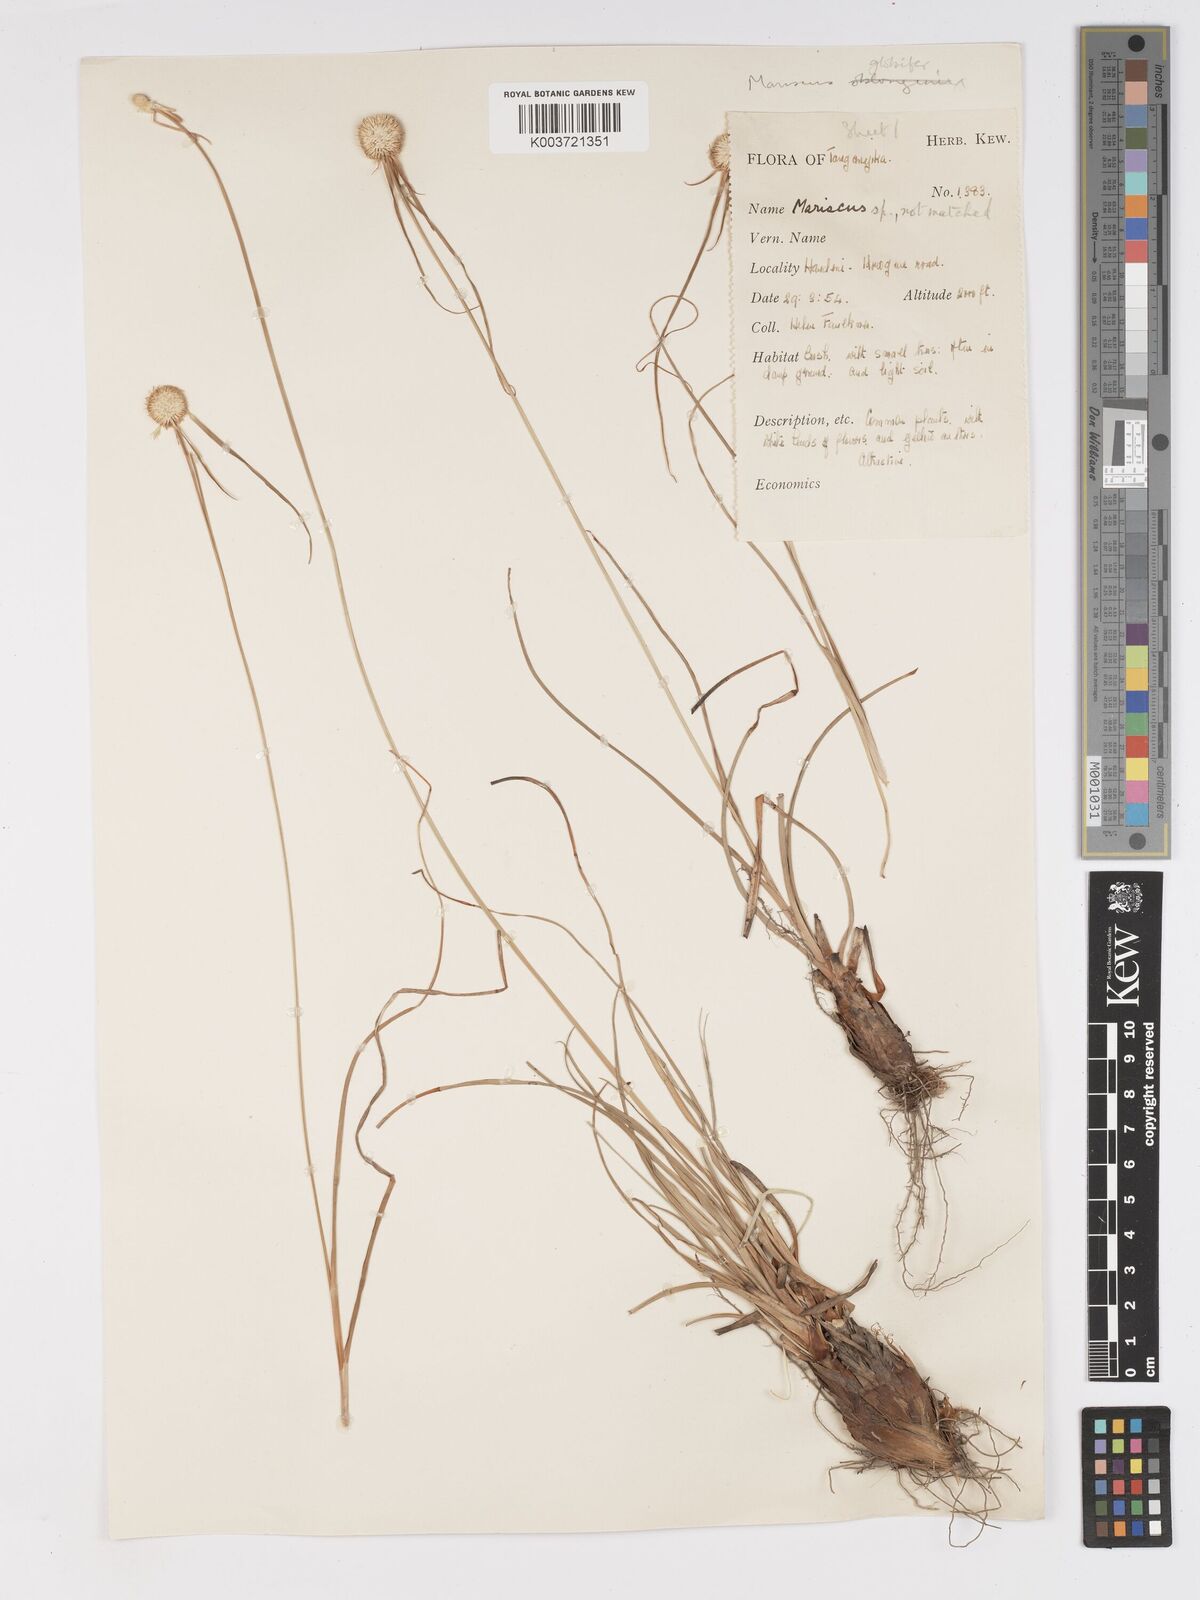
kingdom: Plantae
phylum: Tracheophyta
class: Liliopsida
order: Poales
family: Cyperaceae
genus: Cyperus
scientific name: Cyperus mollipes
